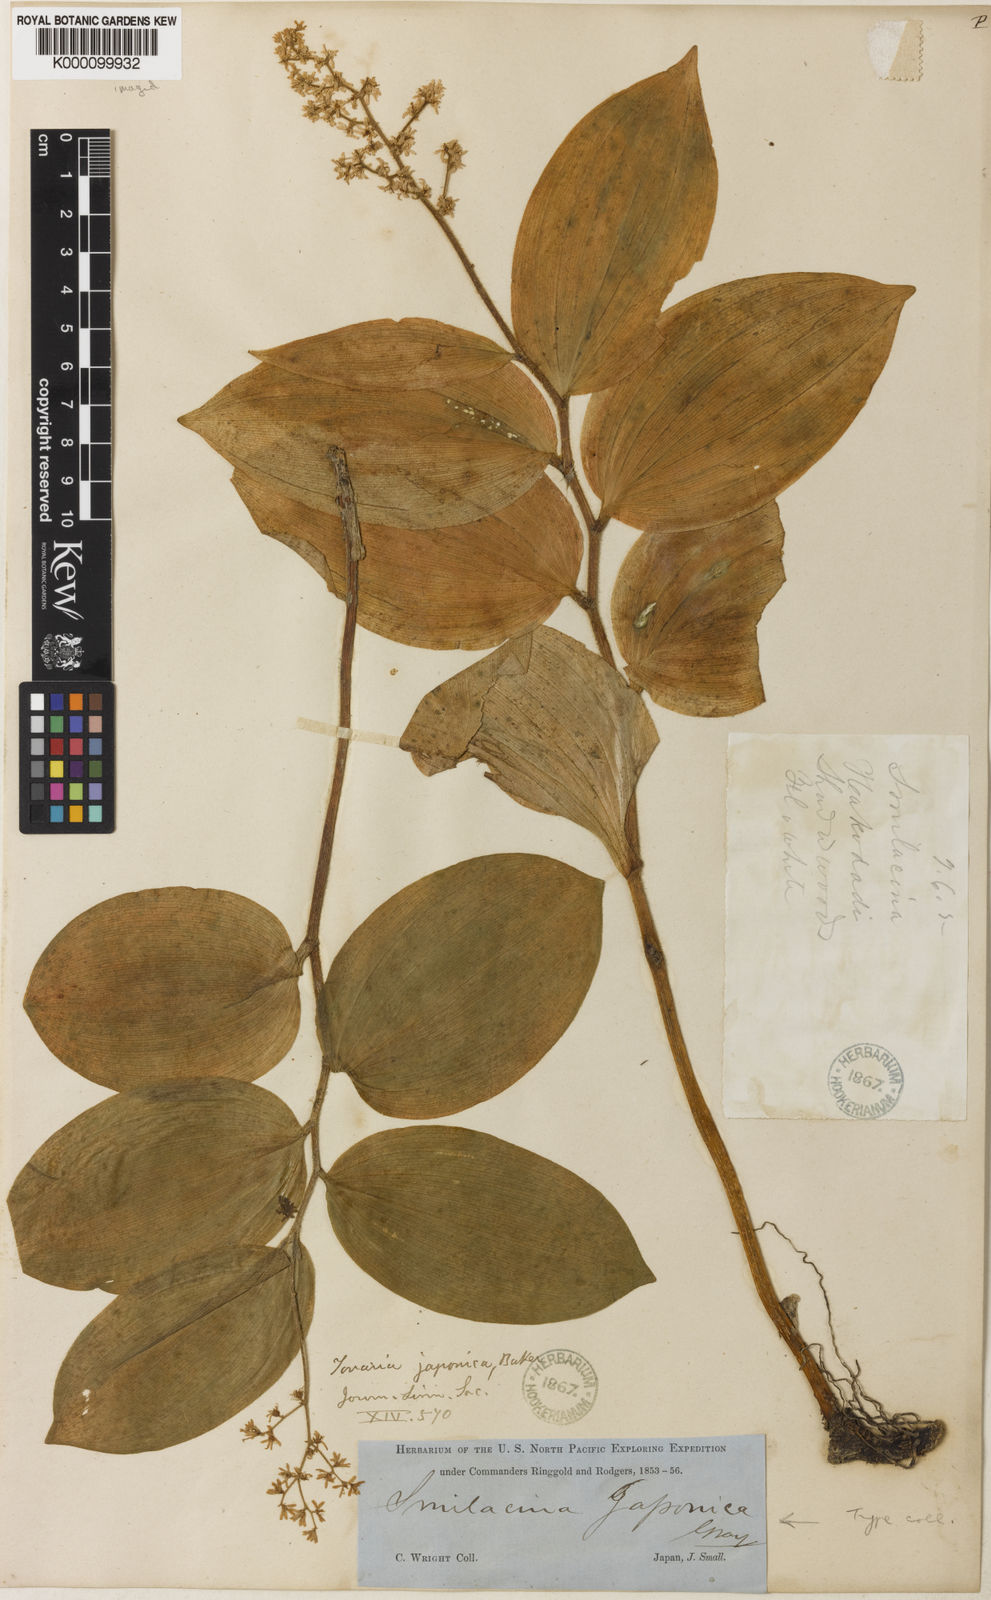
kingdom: Plantae
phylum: Tracheophyta
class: Liliopsida
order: Asparagales
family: Asparagaceae
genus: Maianthemum
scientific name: Maianthemum japonicum
